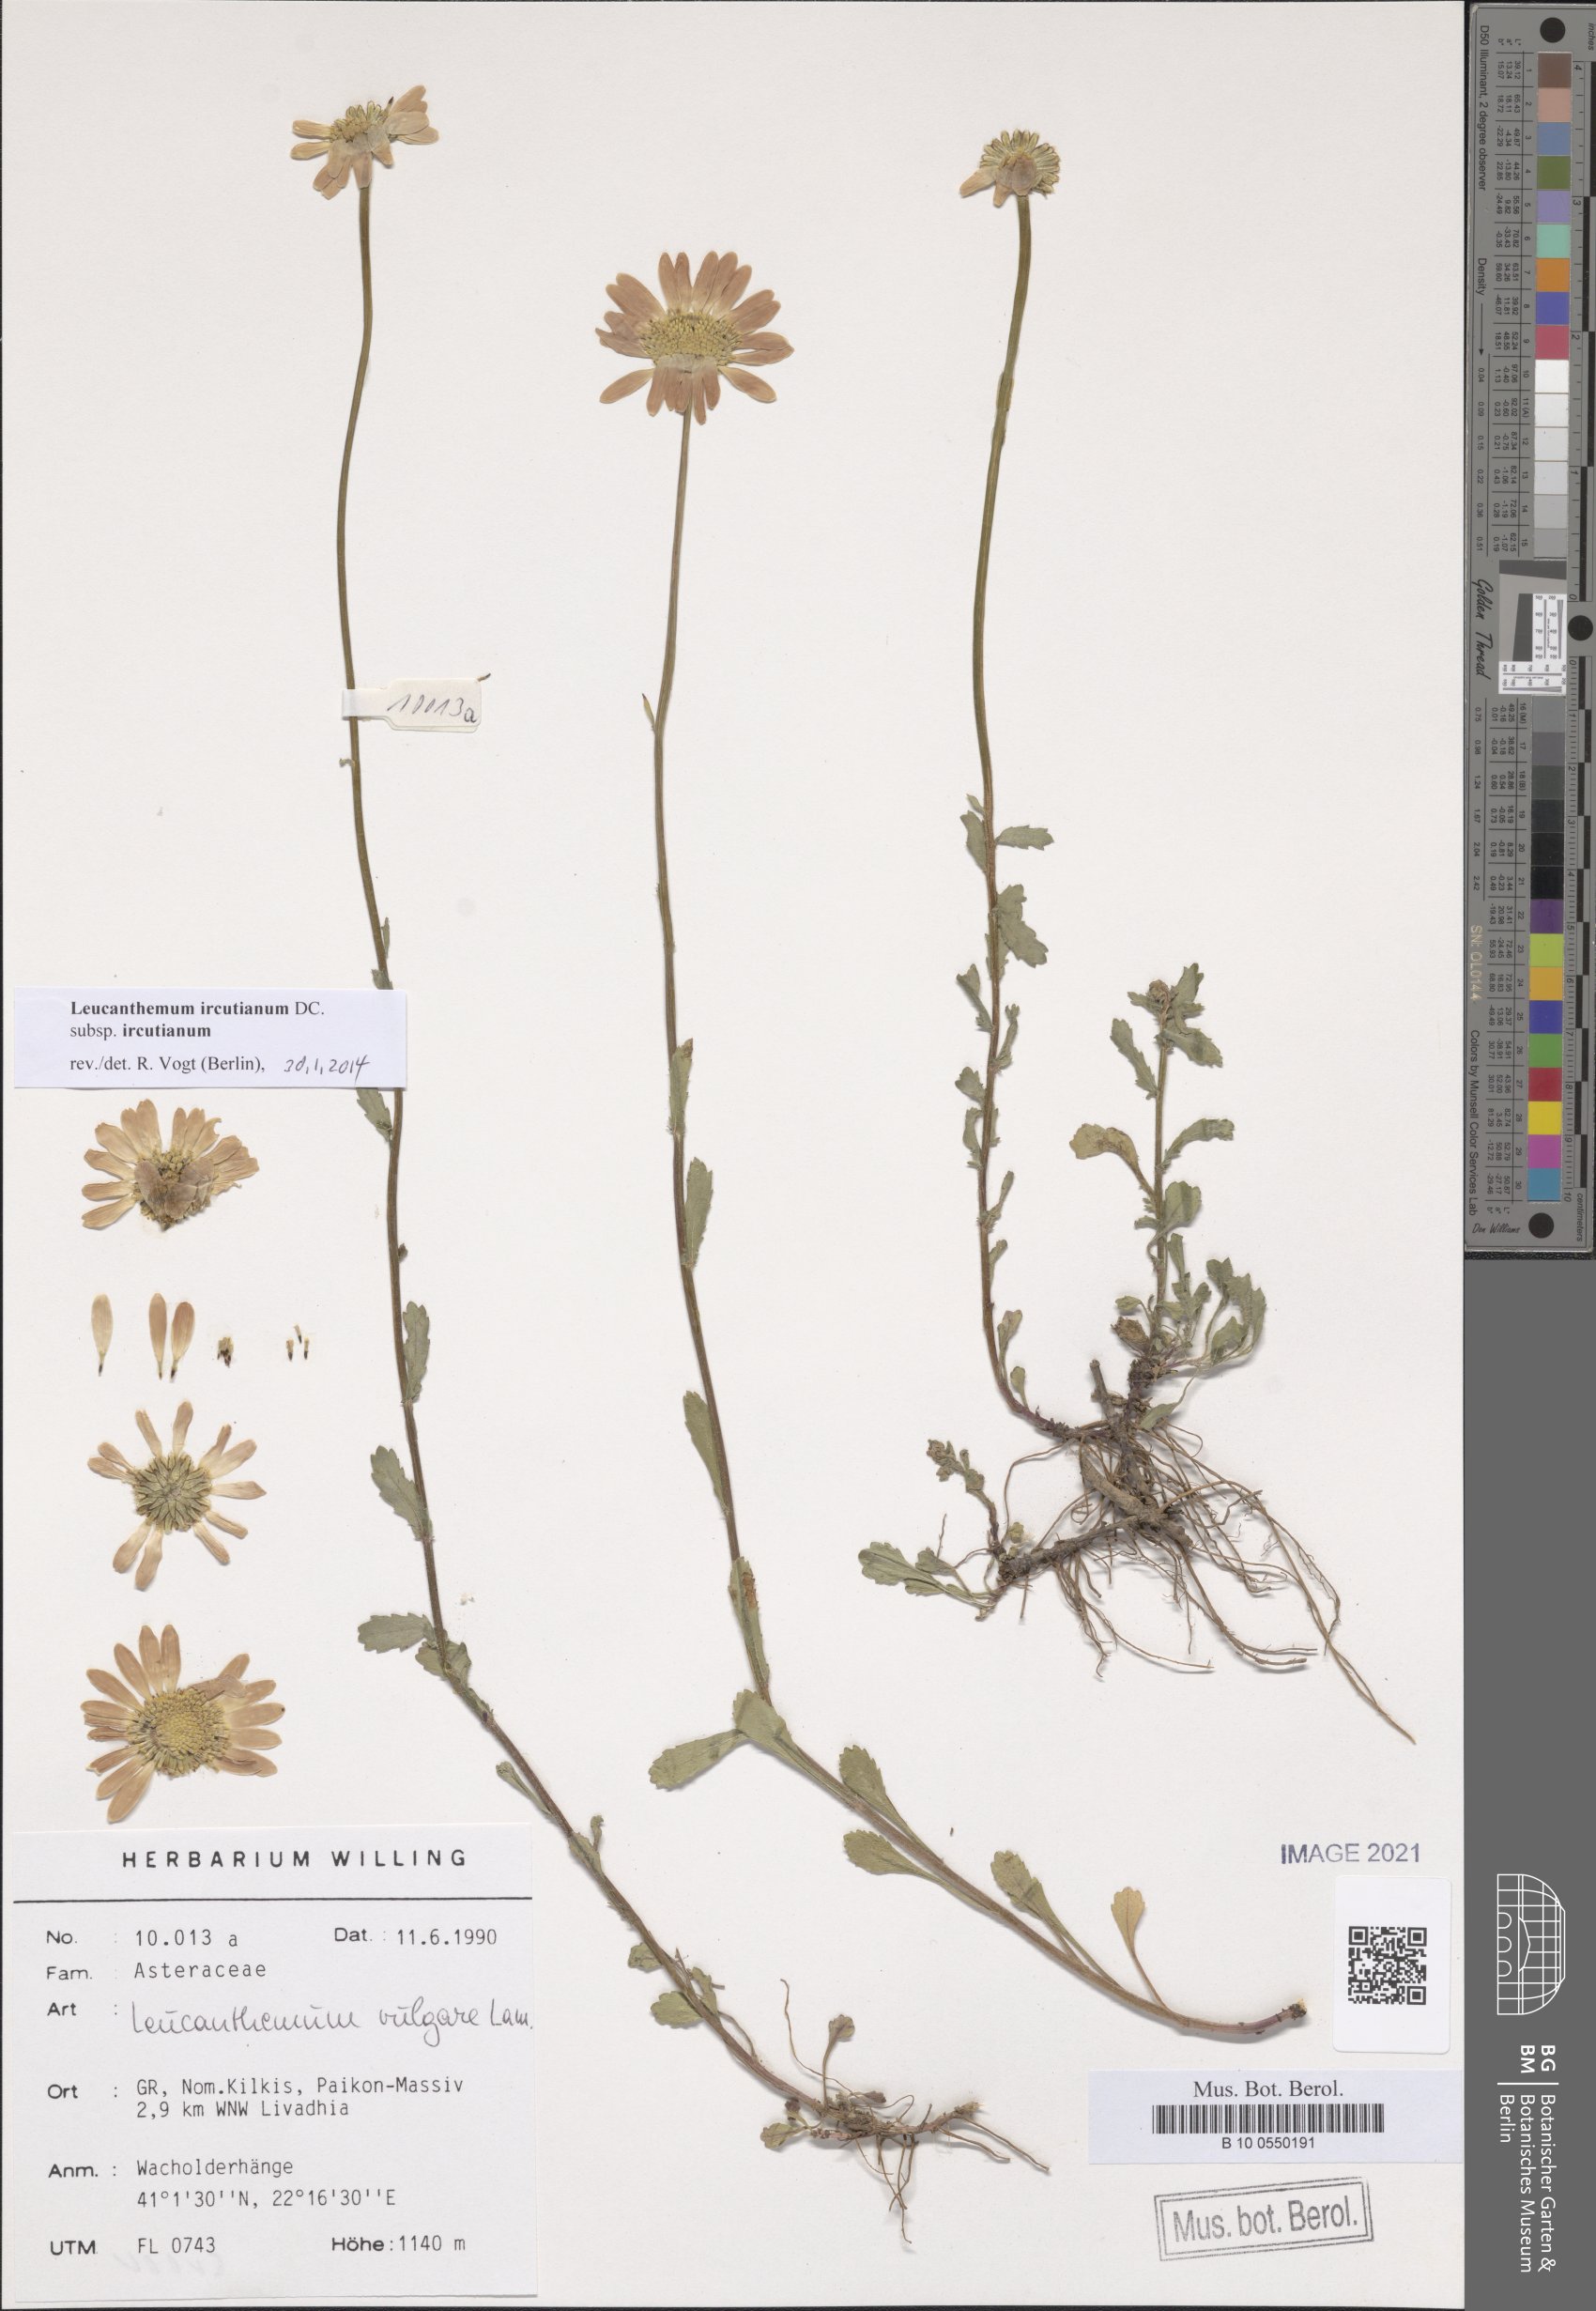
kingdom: Plantae
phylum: Tracheophyta
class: Magnoliopsida
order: Asterales
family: Asteraceae
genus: Leucanthemum
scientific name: Leucanthemum ircutianum
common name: Daisy
